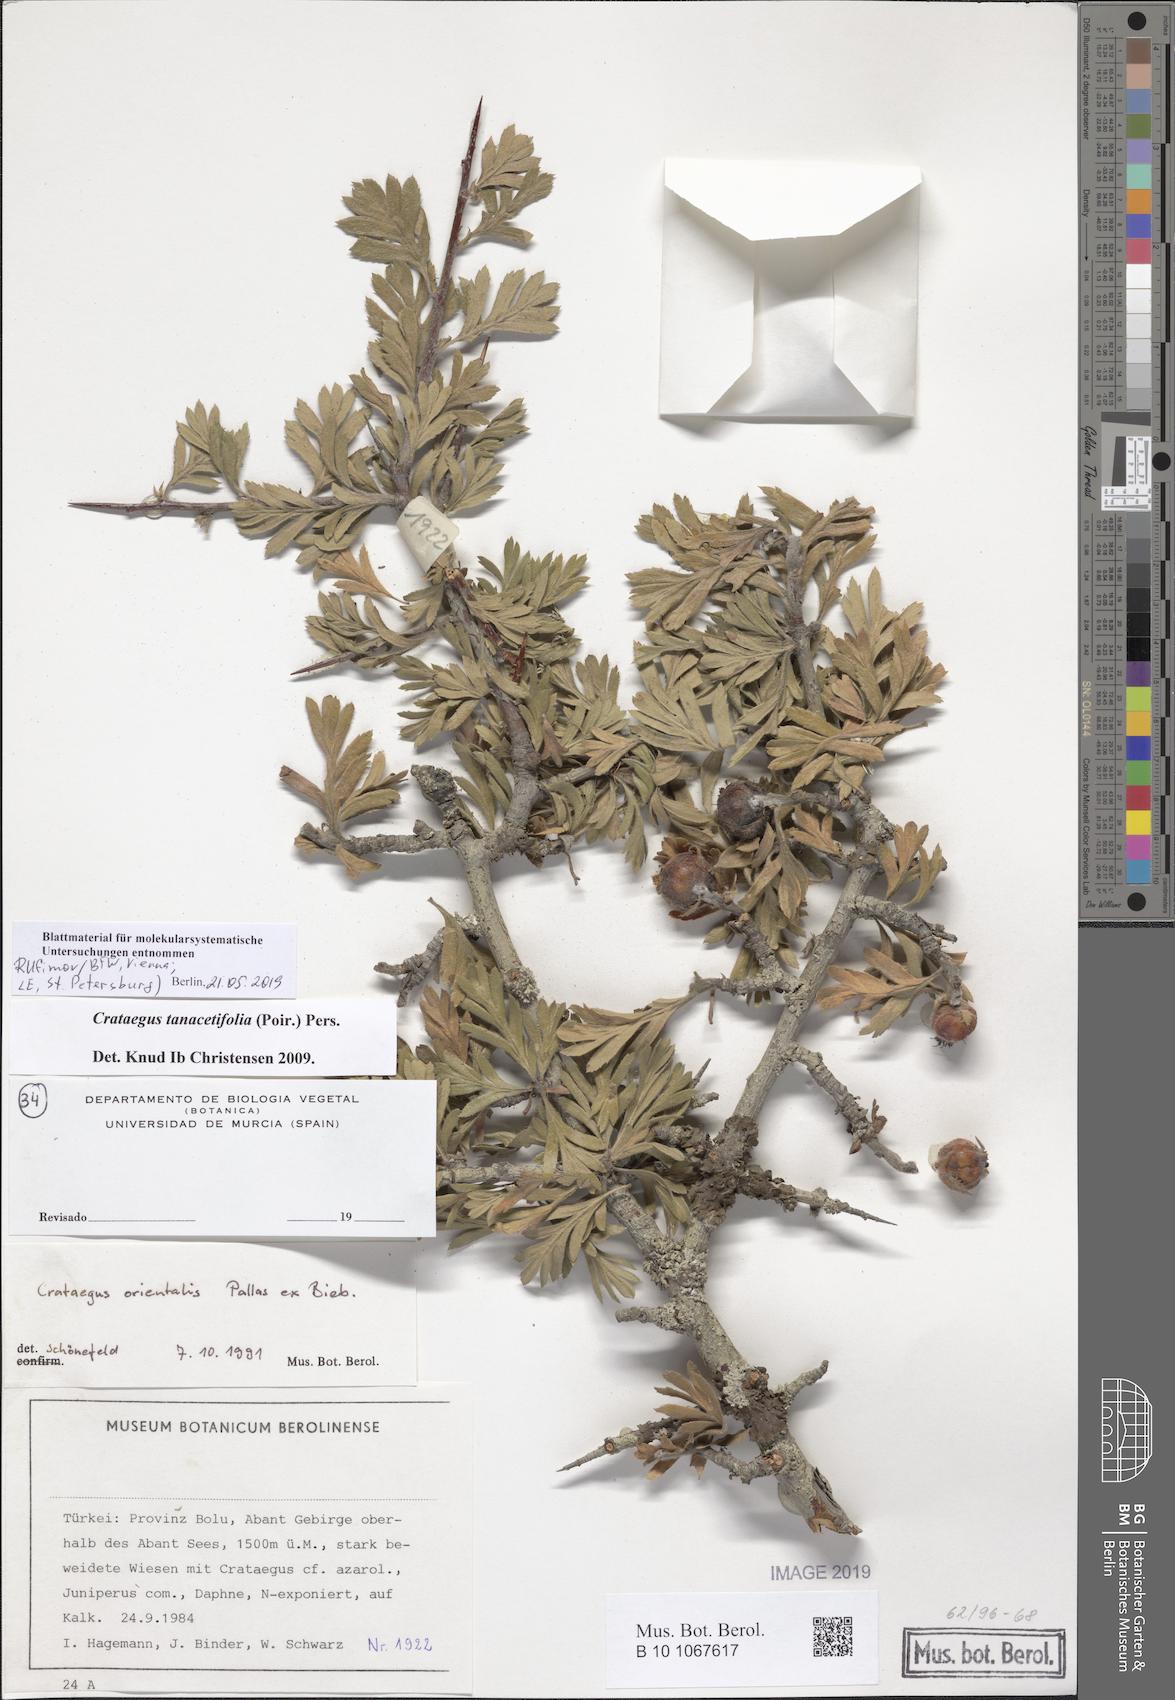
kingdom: Plantae
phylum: Tracheophyta
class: Magnoliopsida
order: Rosales
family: Rosaceae
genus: Crataegus
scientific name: Crataegus tanacetifolia
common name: Tansy-leaved thorn
